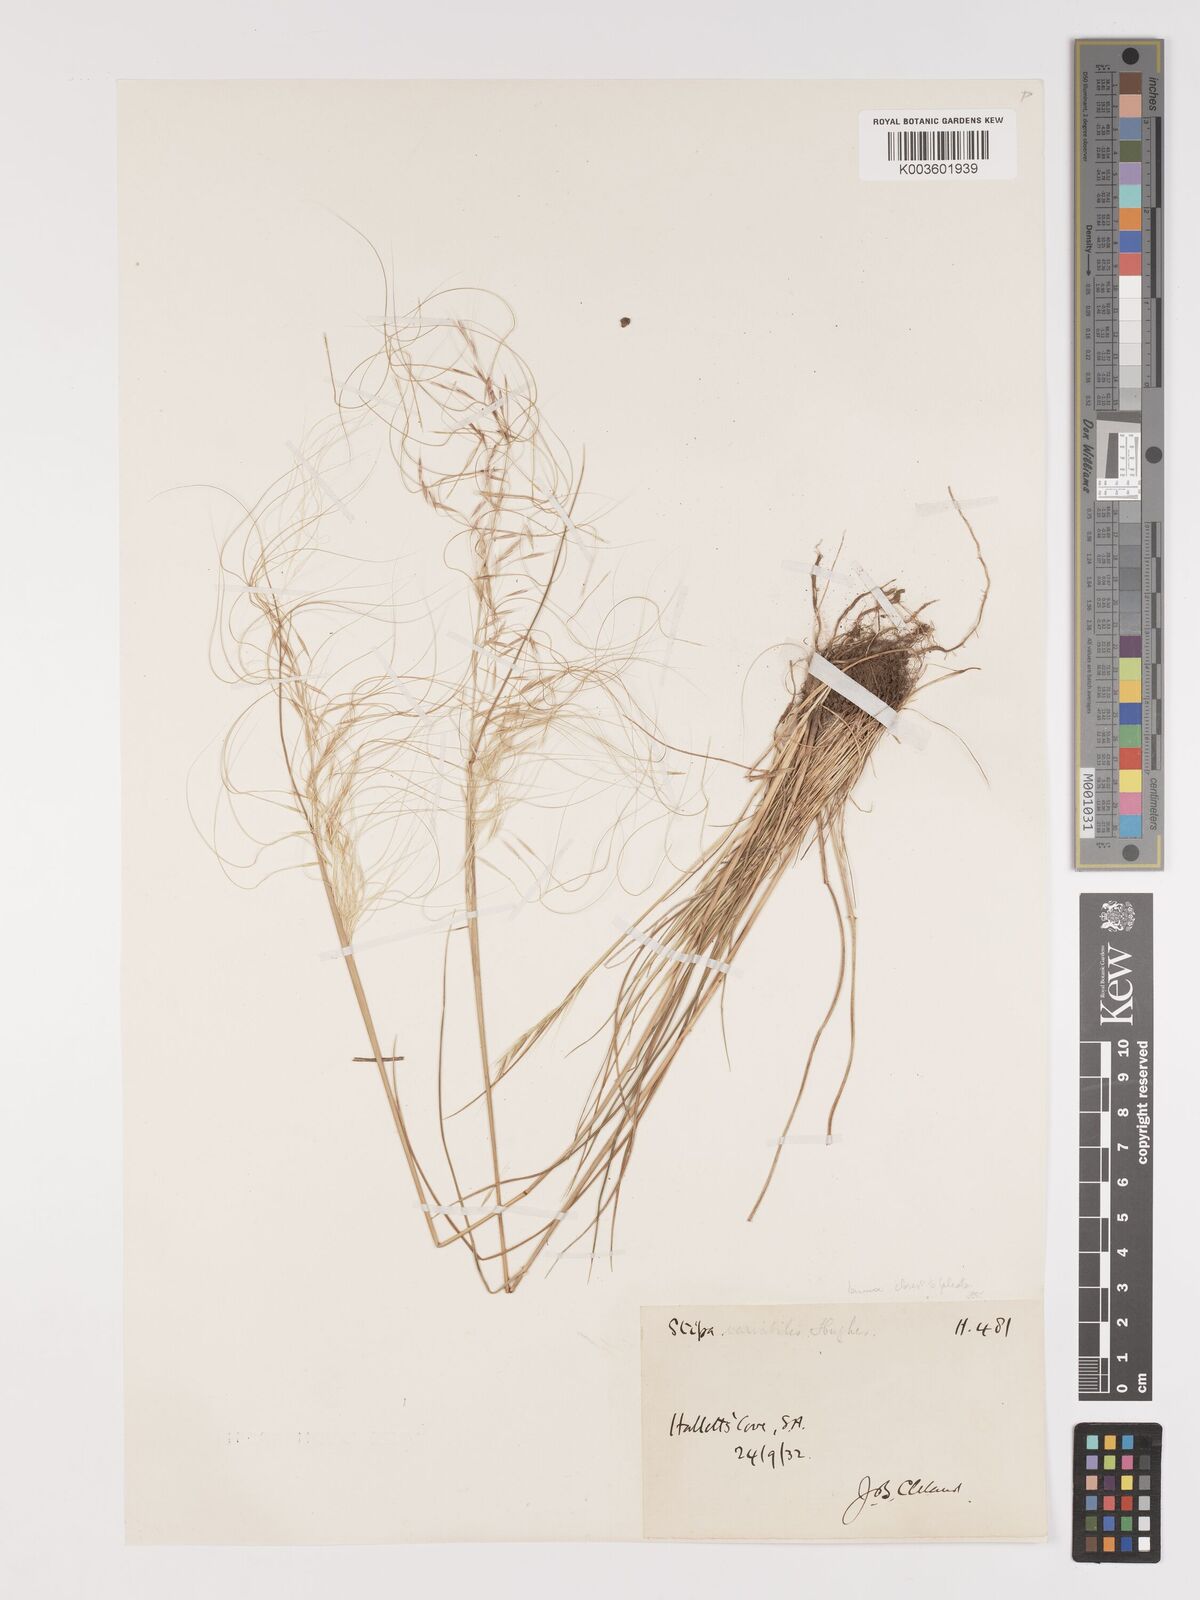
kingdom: Plantae
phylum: Tracheophyta
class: Liliopsida
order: Poales
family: Poaceae
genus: Austrostipa
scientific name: Austrostipa nodosa
